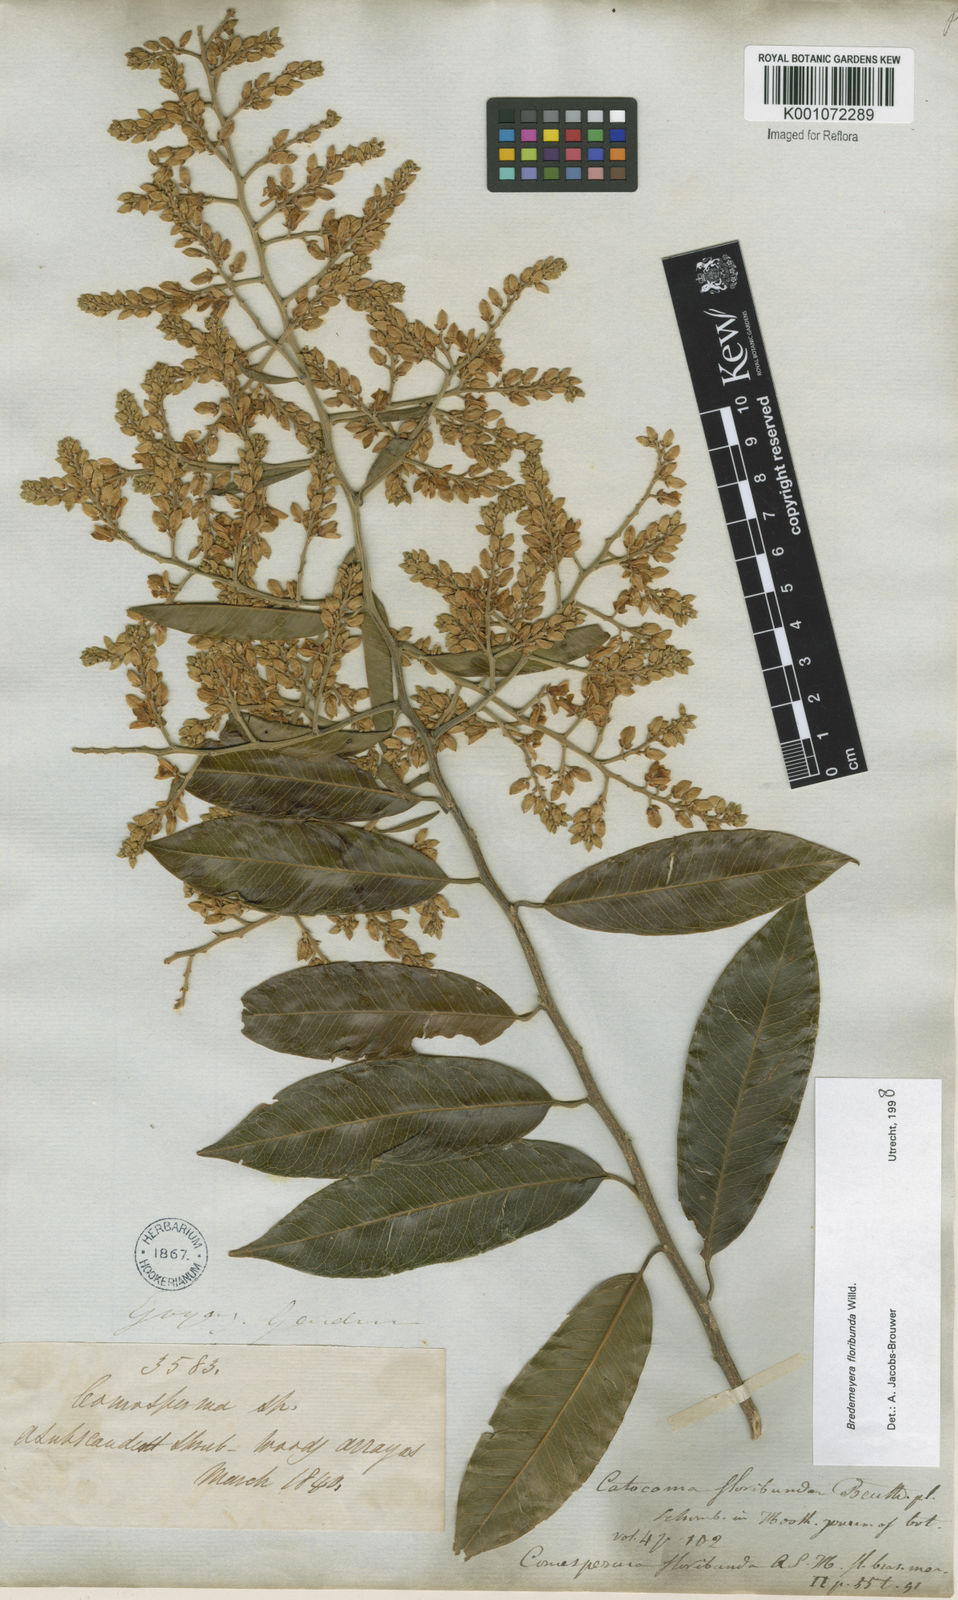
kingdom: Plantae
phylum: Tracheophyta
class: Magnoliopsida
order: Fabales
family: Polygalaceae
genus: Bredemeyera
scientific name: Bredemeyera floribunda
